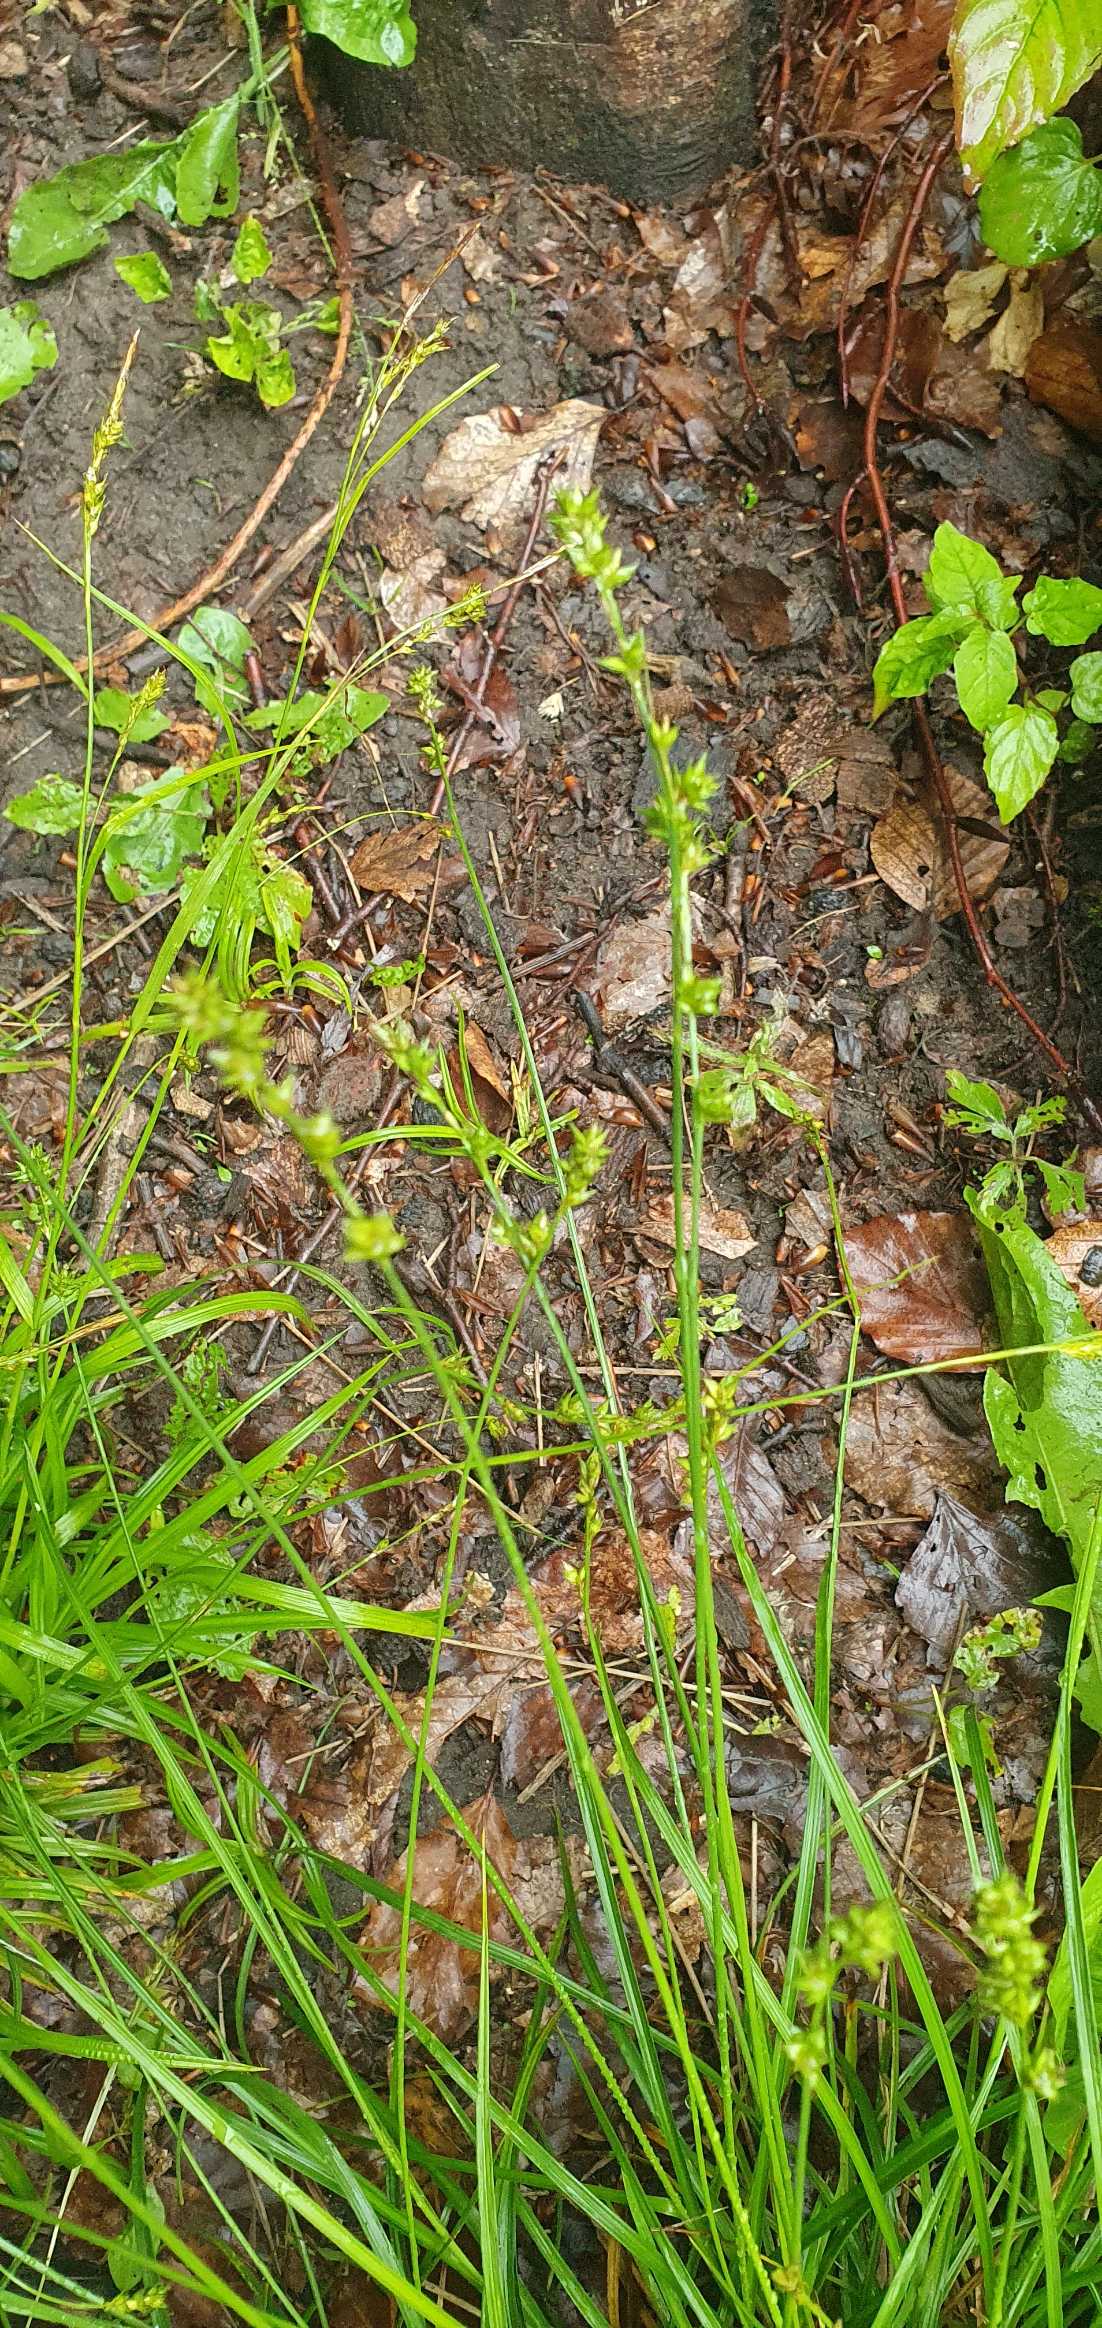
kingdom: Plantae
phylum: Tracheophyta
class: Liliopsida
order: Poales
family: Cyperaceae
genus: Carex
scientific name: Carex divulsa
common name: Mellembrudt star
